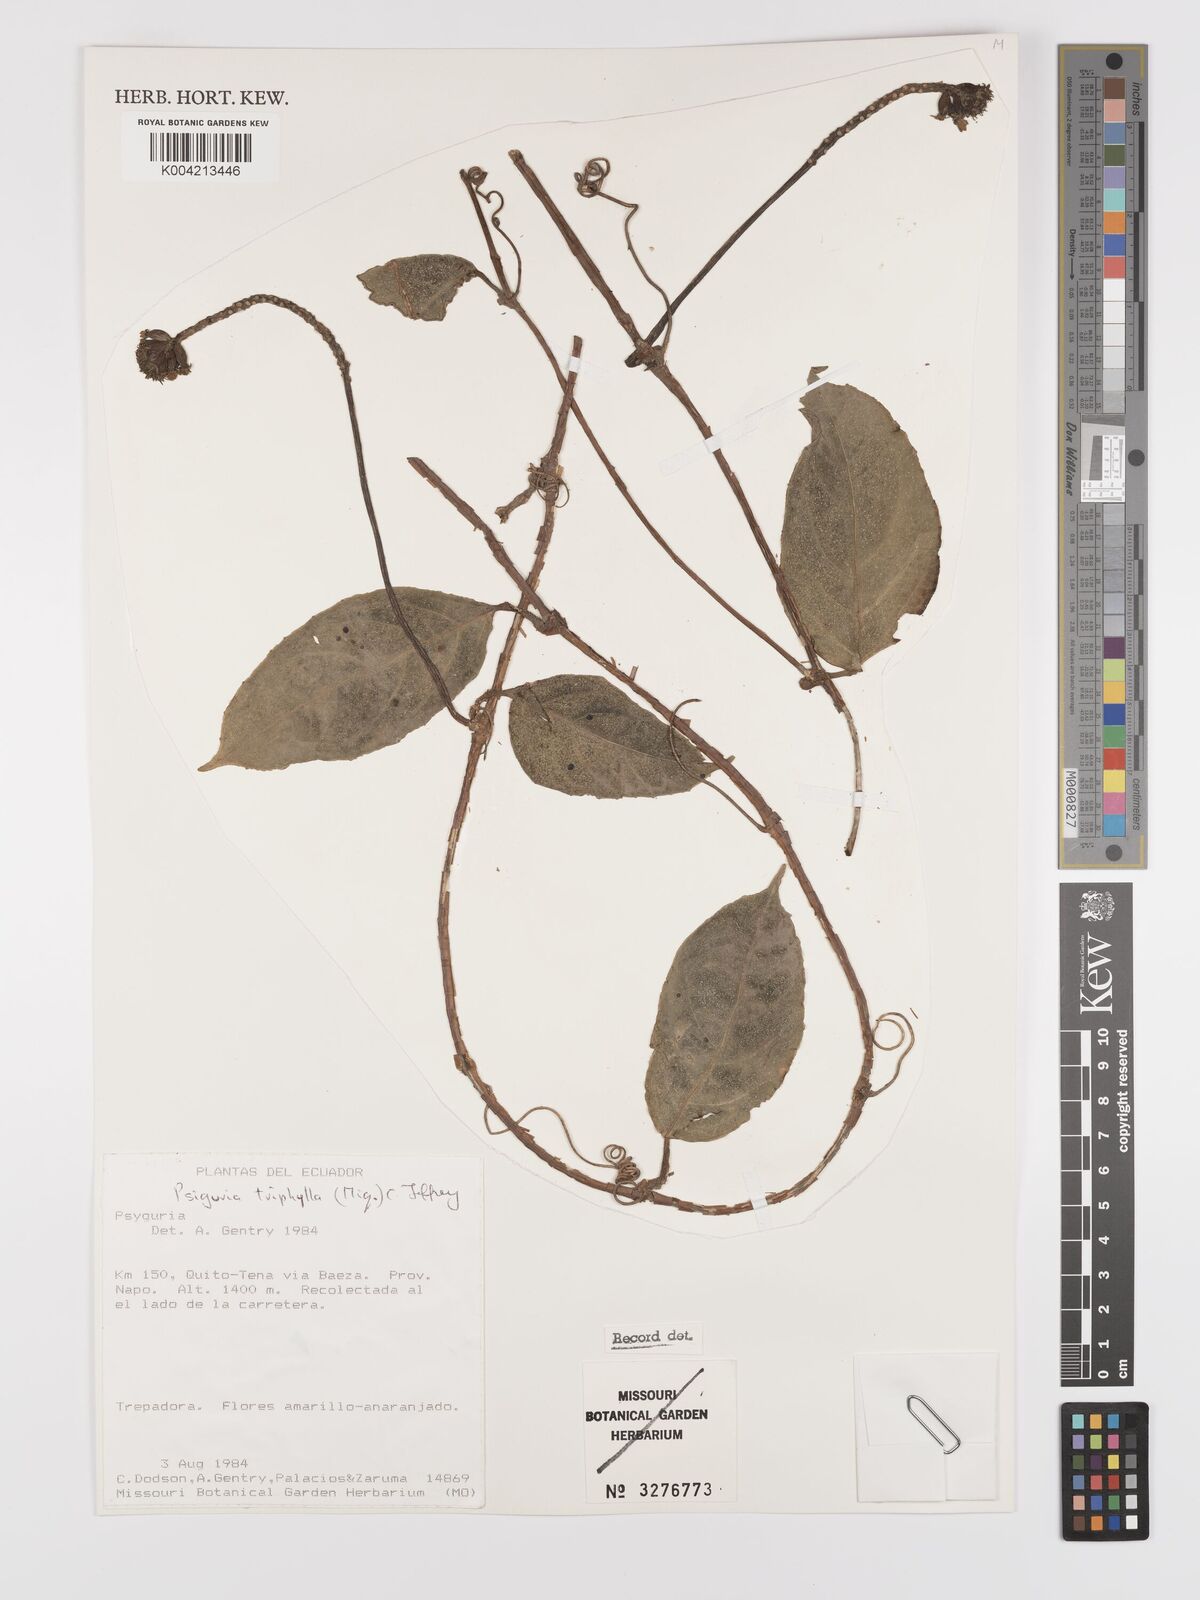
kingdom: Plantae
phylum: Tracheophyta
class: Magnoliopsida
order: Cucurbitales
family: Cucurbitaceae
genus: Psiguria
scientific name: Psiguria triphylla
